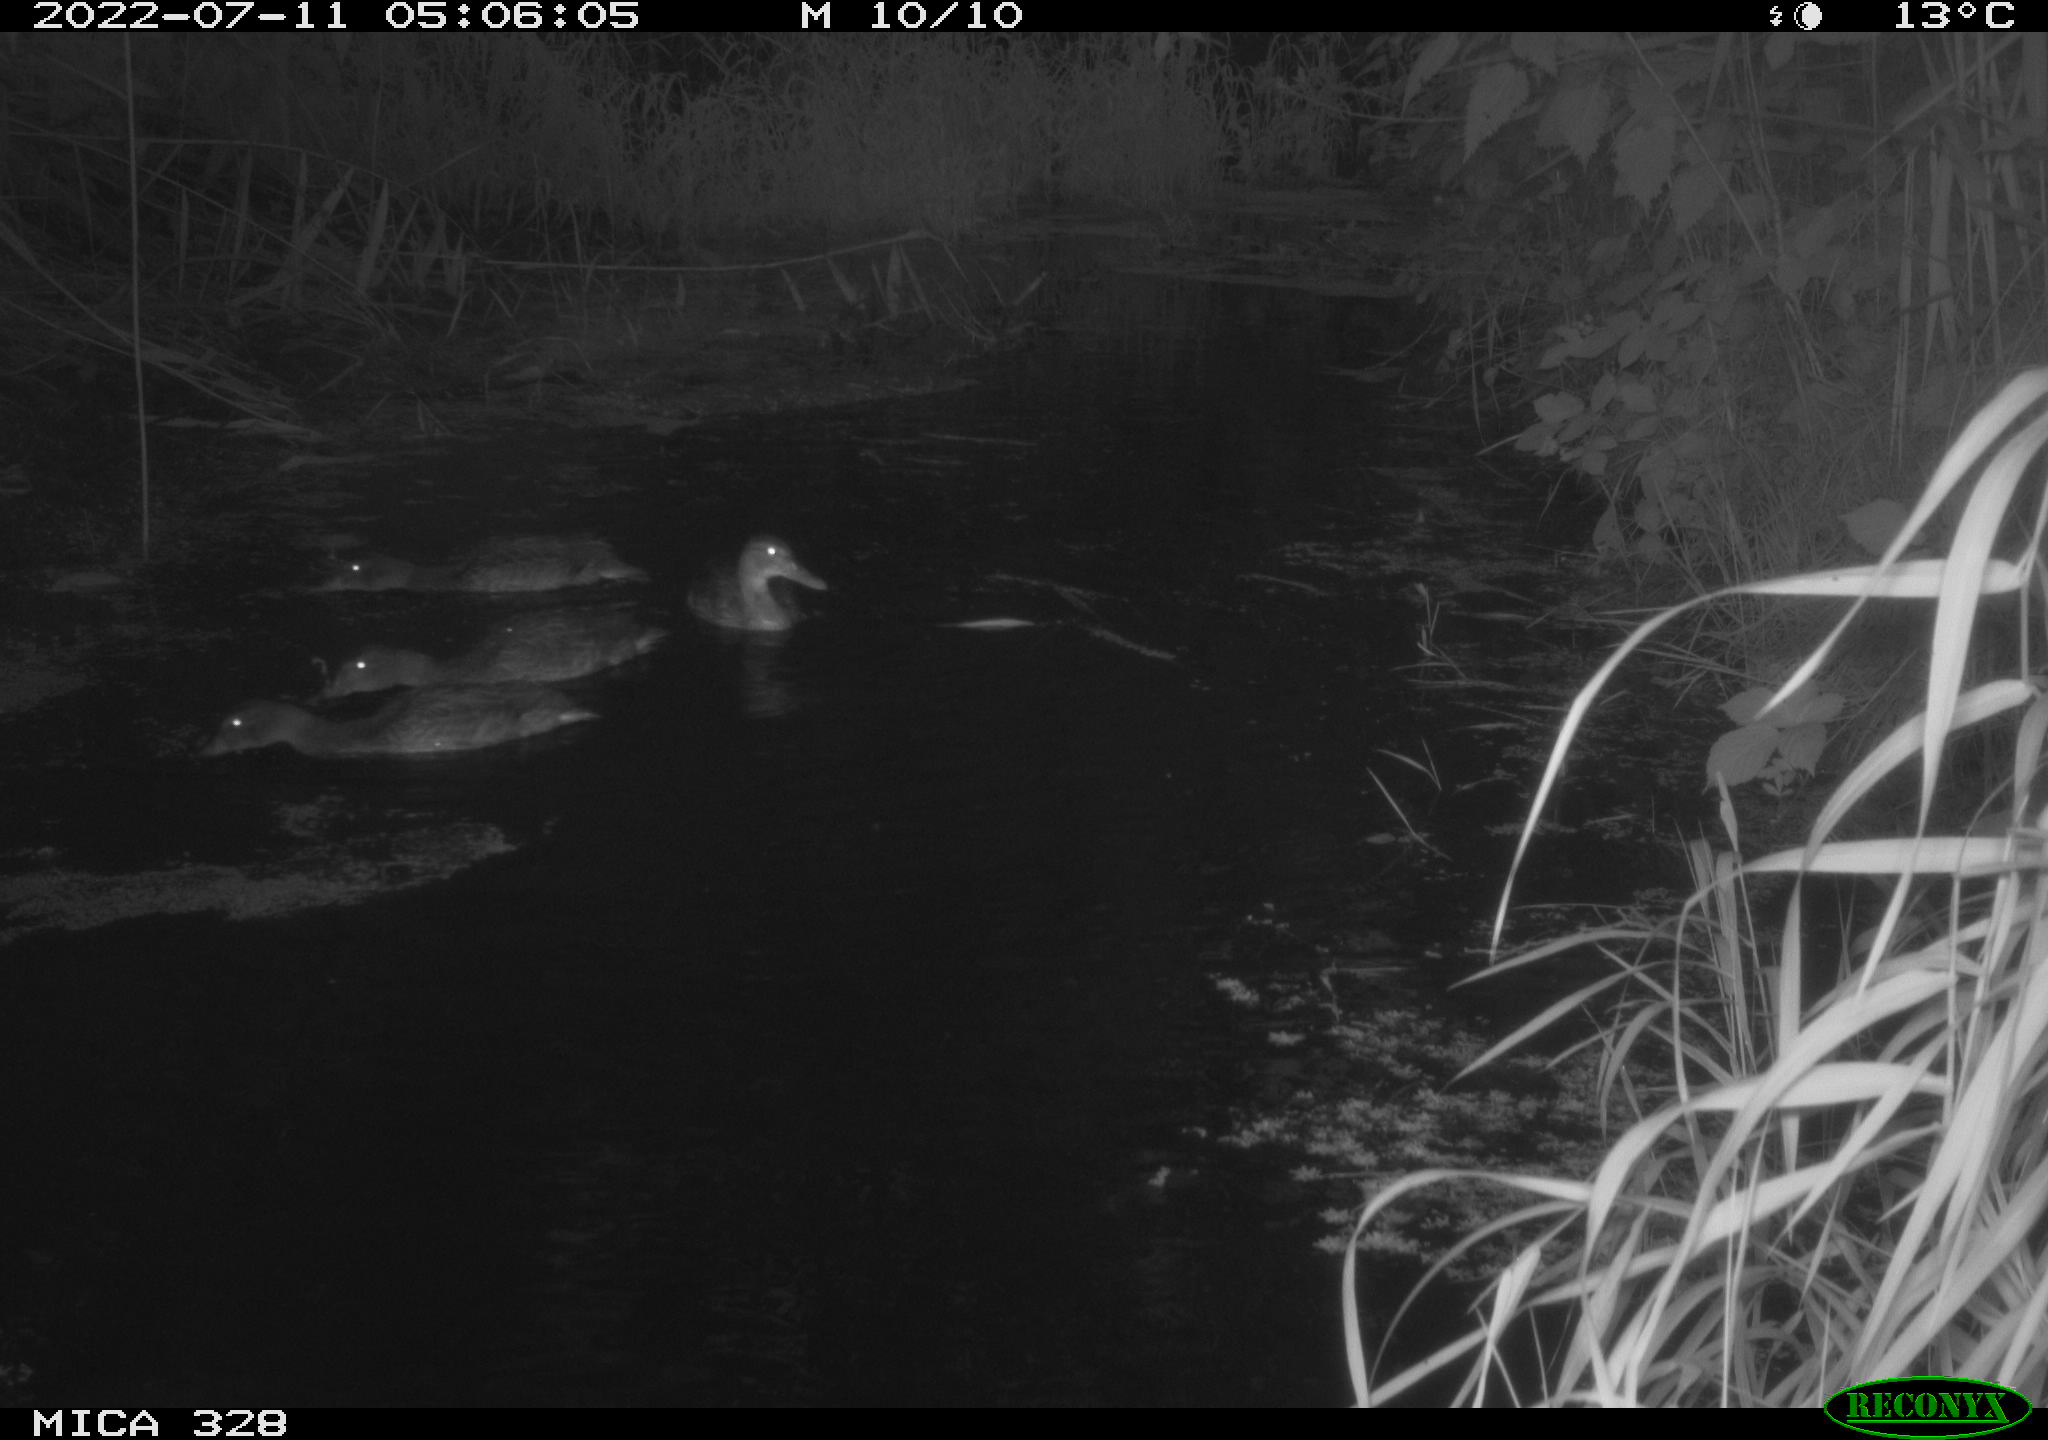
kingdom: Animalia
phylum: Chordata
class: Aves
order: Anseriformes
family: Anatidae
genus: Anas
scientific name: Anas
